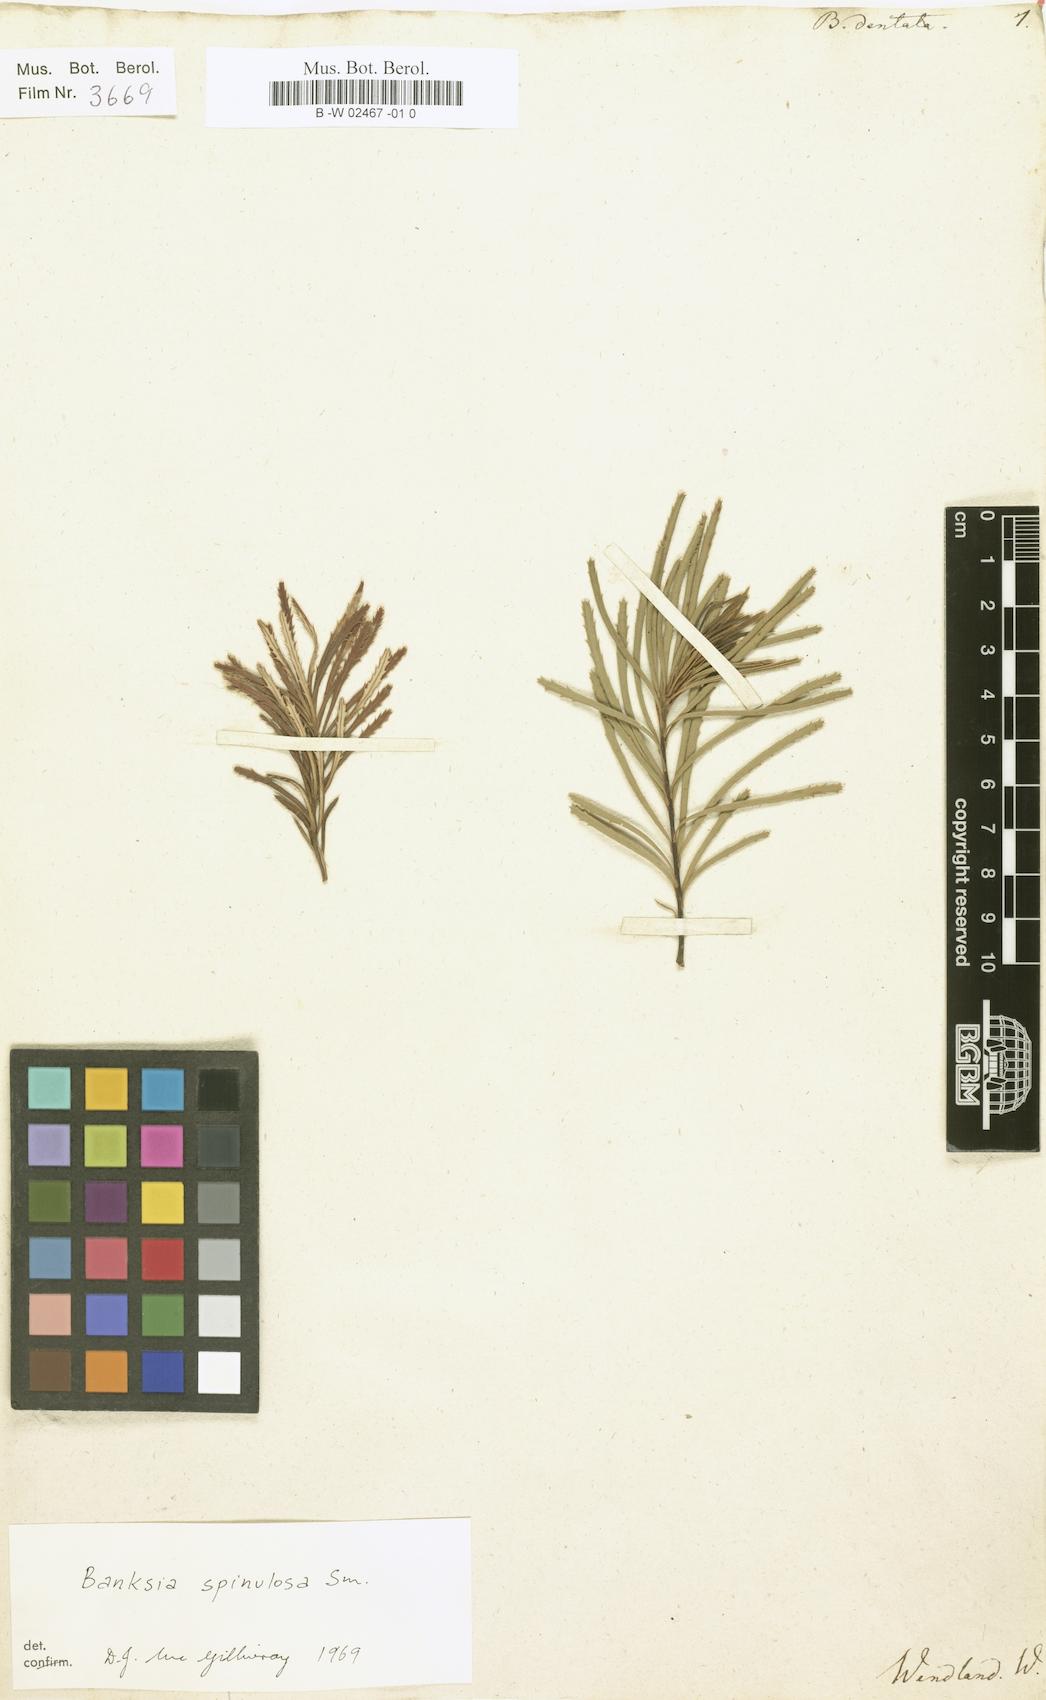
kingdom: Plantae
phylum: Tracheophyta
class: Magnoliopsida
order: Proteales
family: Proteaceae
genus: Banksia
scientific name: Banksia dentata
